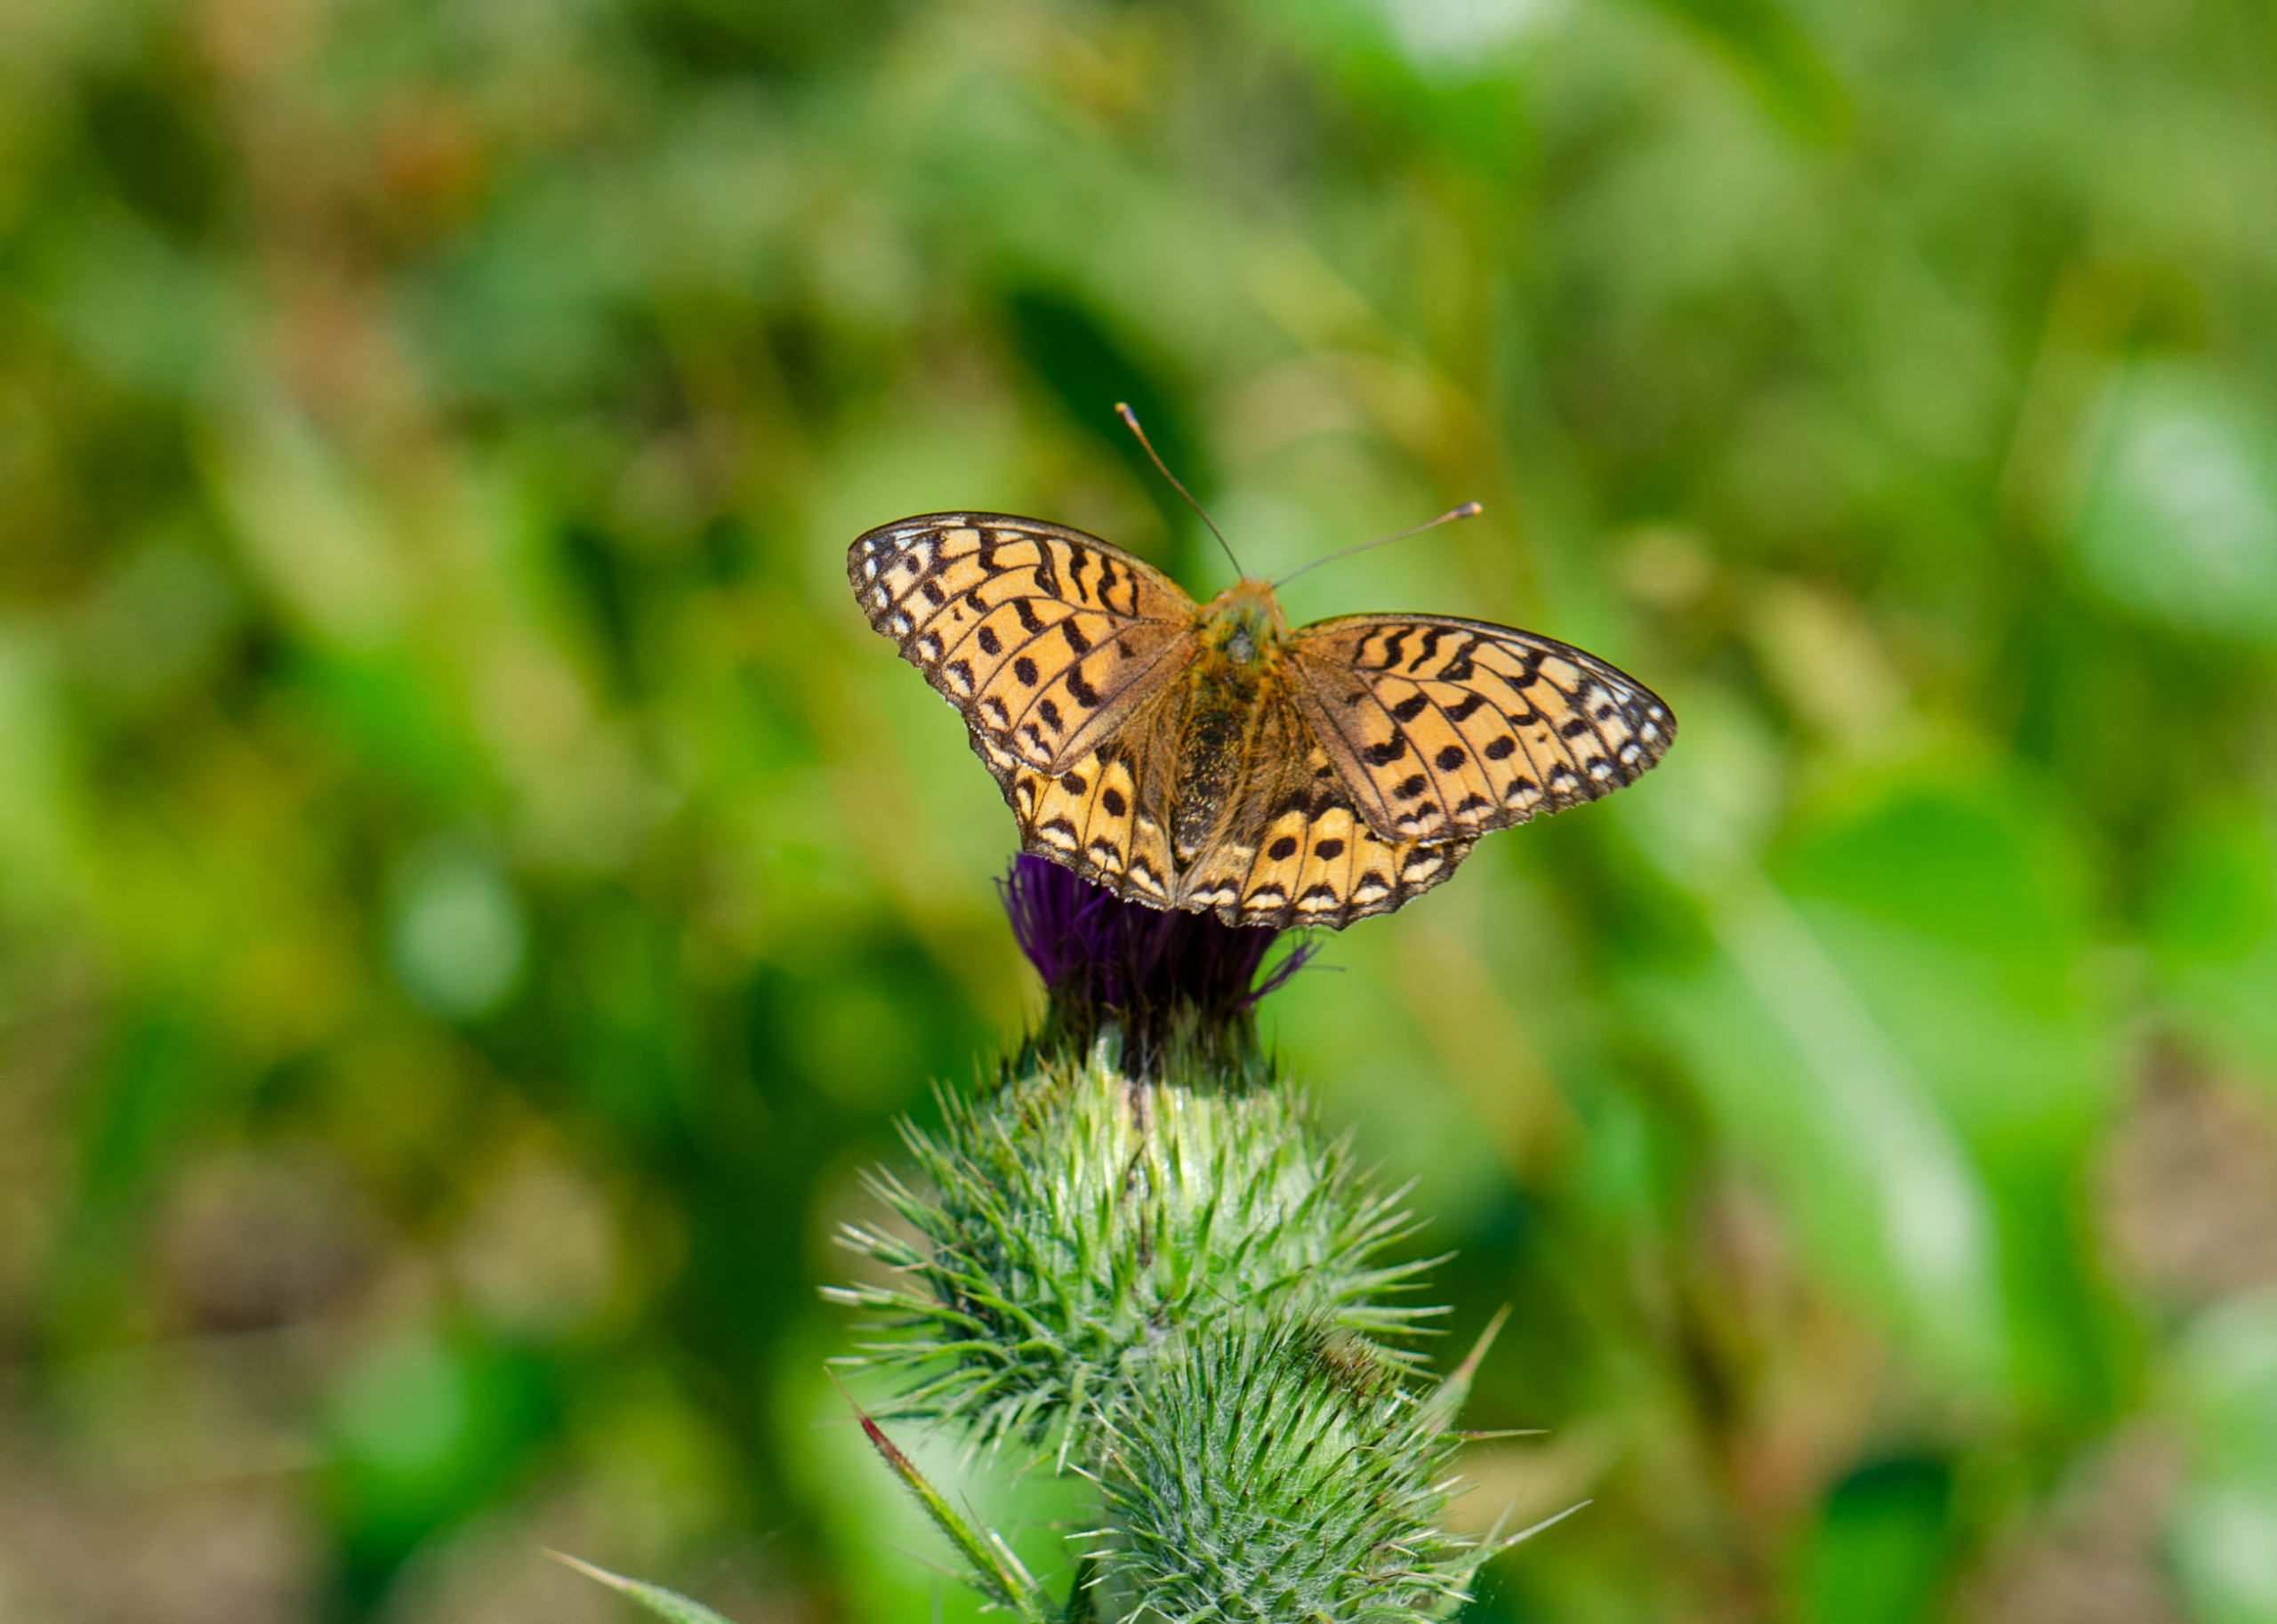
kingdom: Animalia
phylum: Arthropoda
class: Insecta
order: Lepidoptera
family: Nymphalidae
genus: Speyeria
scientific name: Speyeria aglaja
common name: Markperlemorsommerfugl
